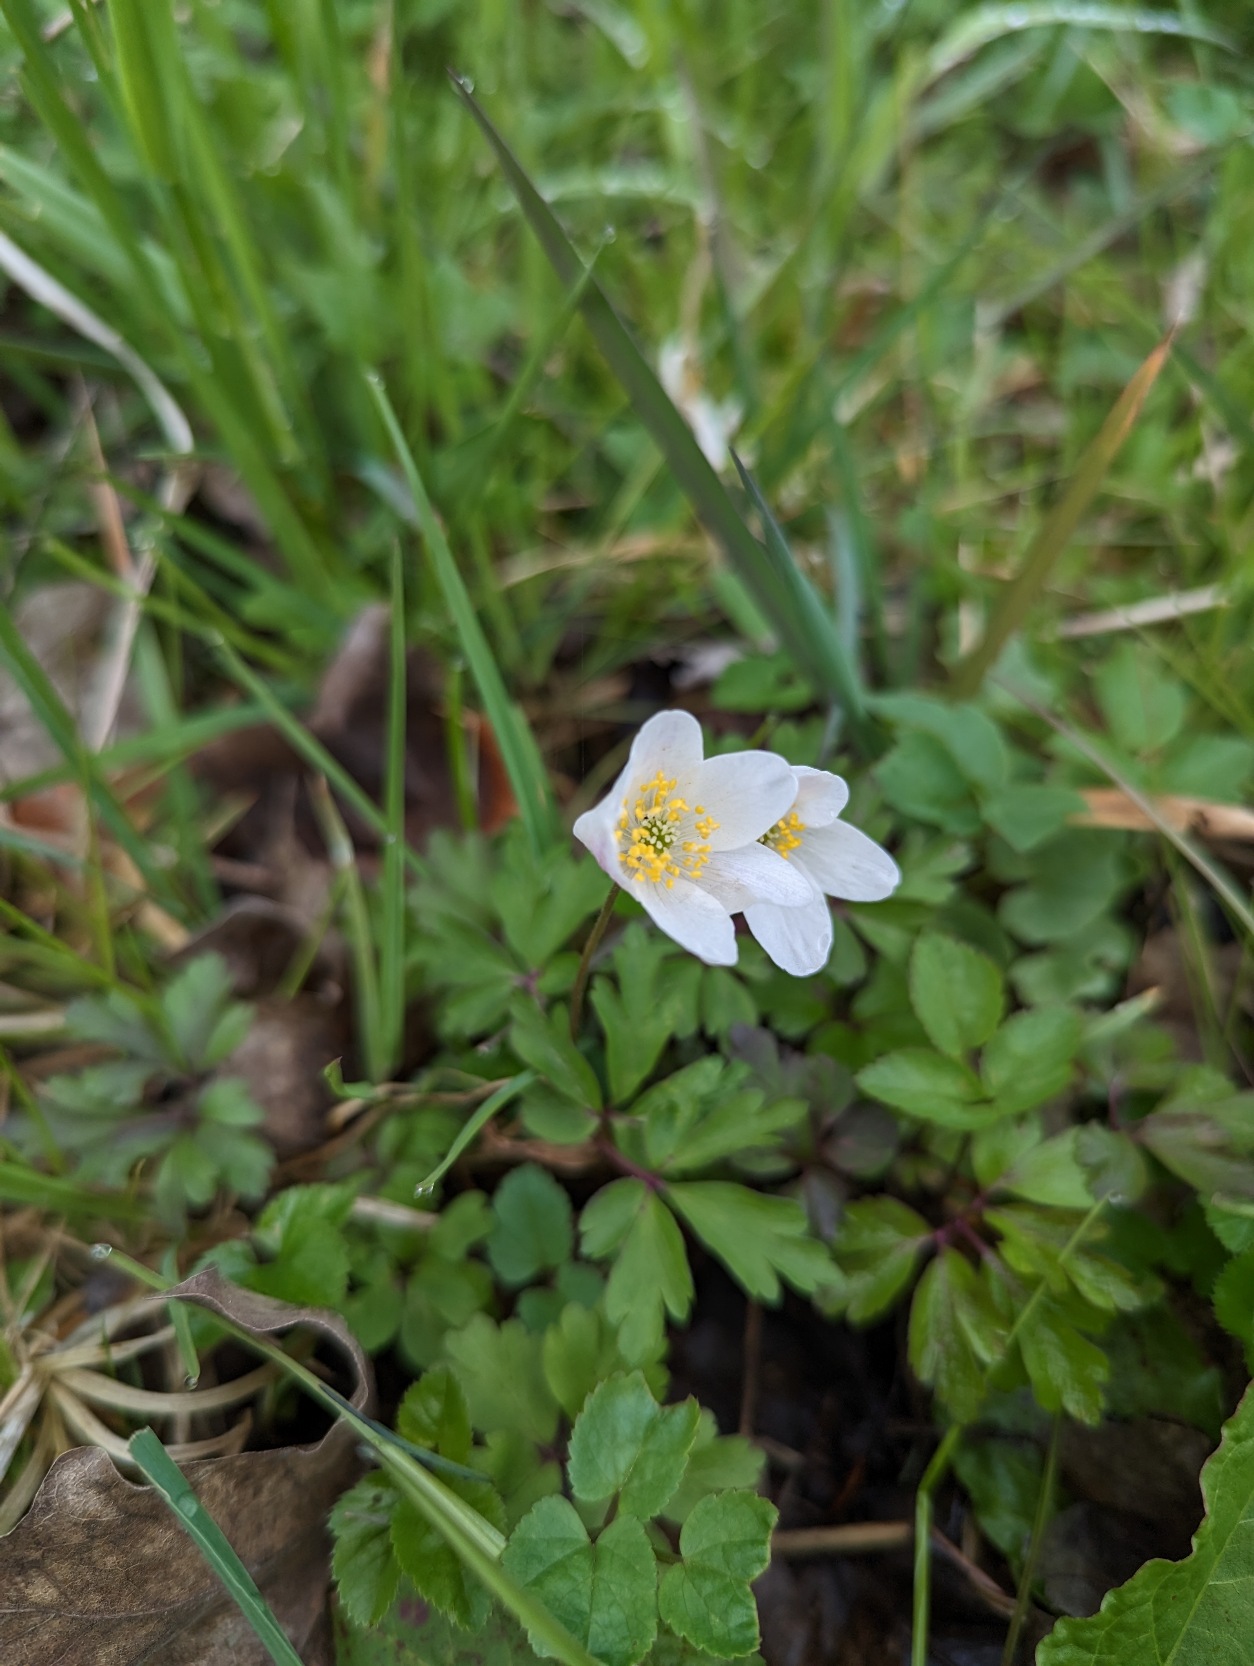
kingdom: Plantae
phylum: Tracheophyta
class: Magnoliopsida
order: Ranunculales
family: Ranunculaceae
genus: Anemone
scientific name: Anemone nemorosa
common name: Hvid anemone
